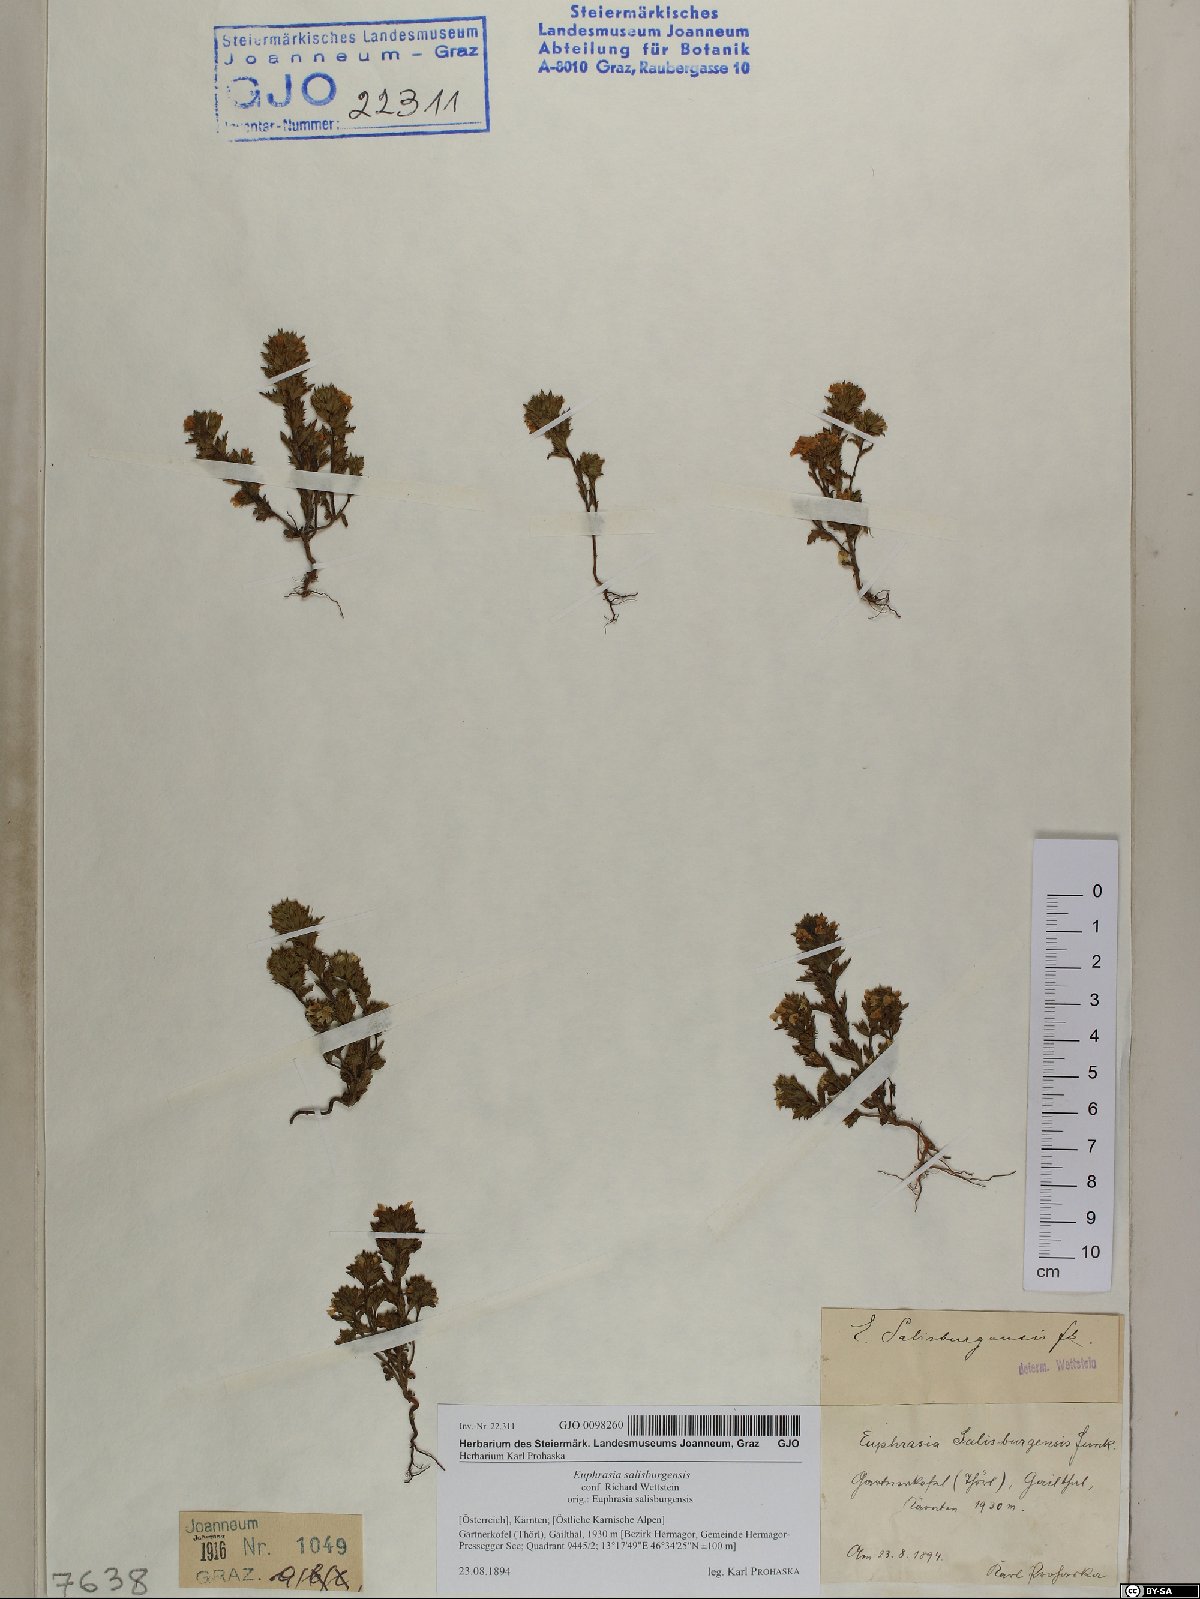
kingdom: Plantae
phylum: Tracheophyta
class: Magnoliopsida
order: Lamiales
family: Orobanchaceae
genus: Euphrasia
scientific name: Euphrasia salisburgensis
